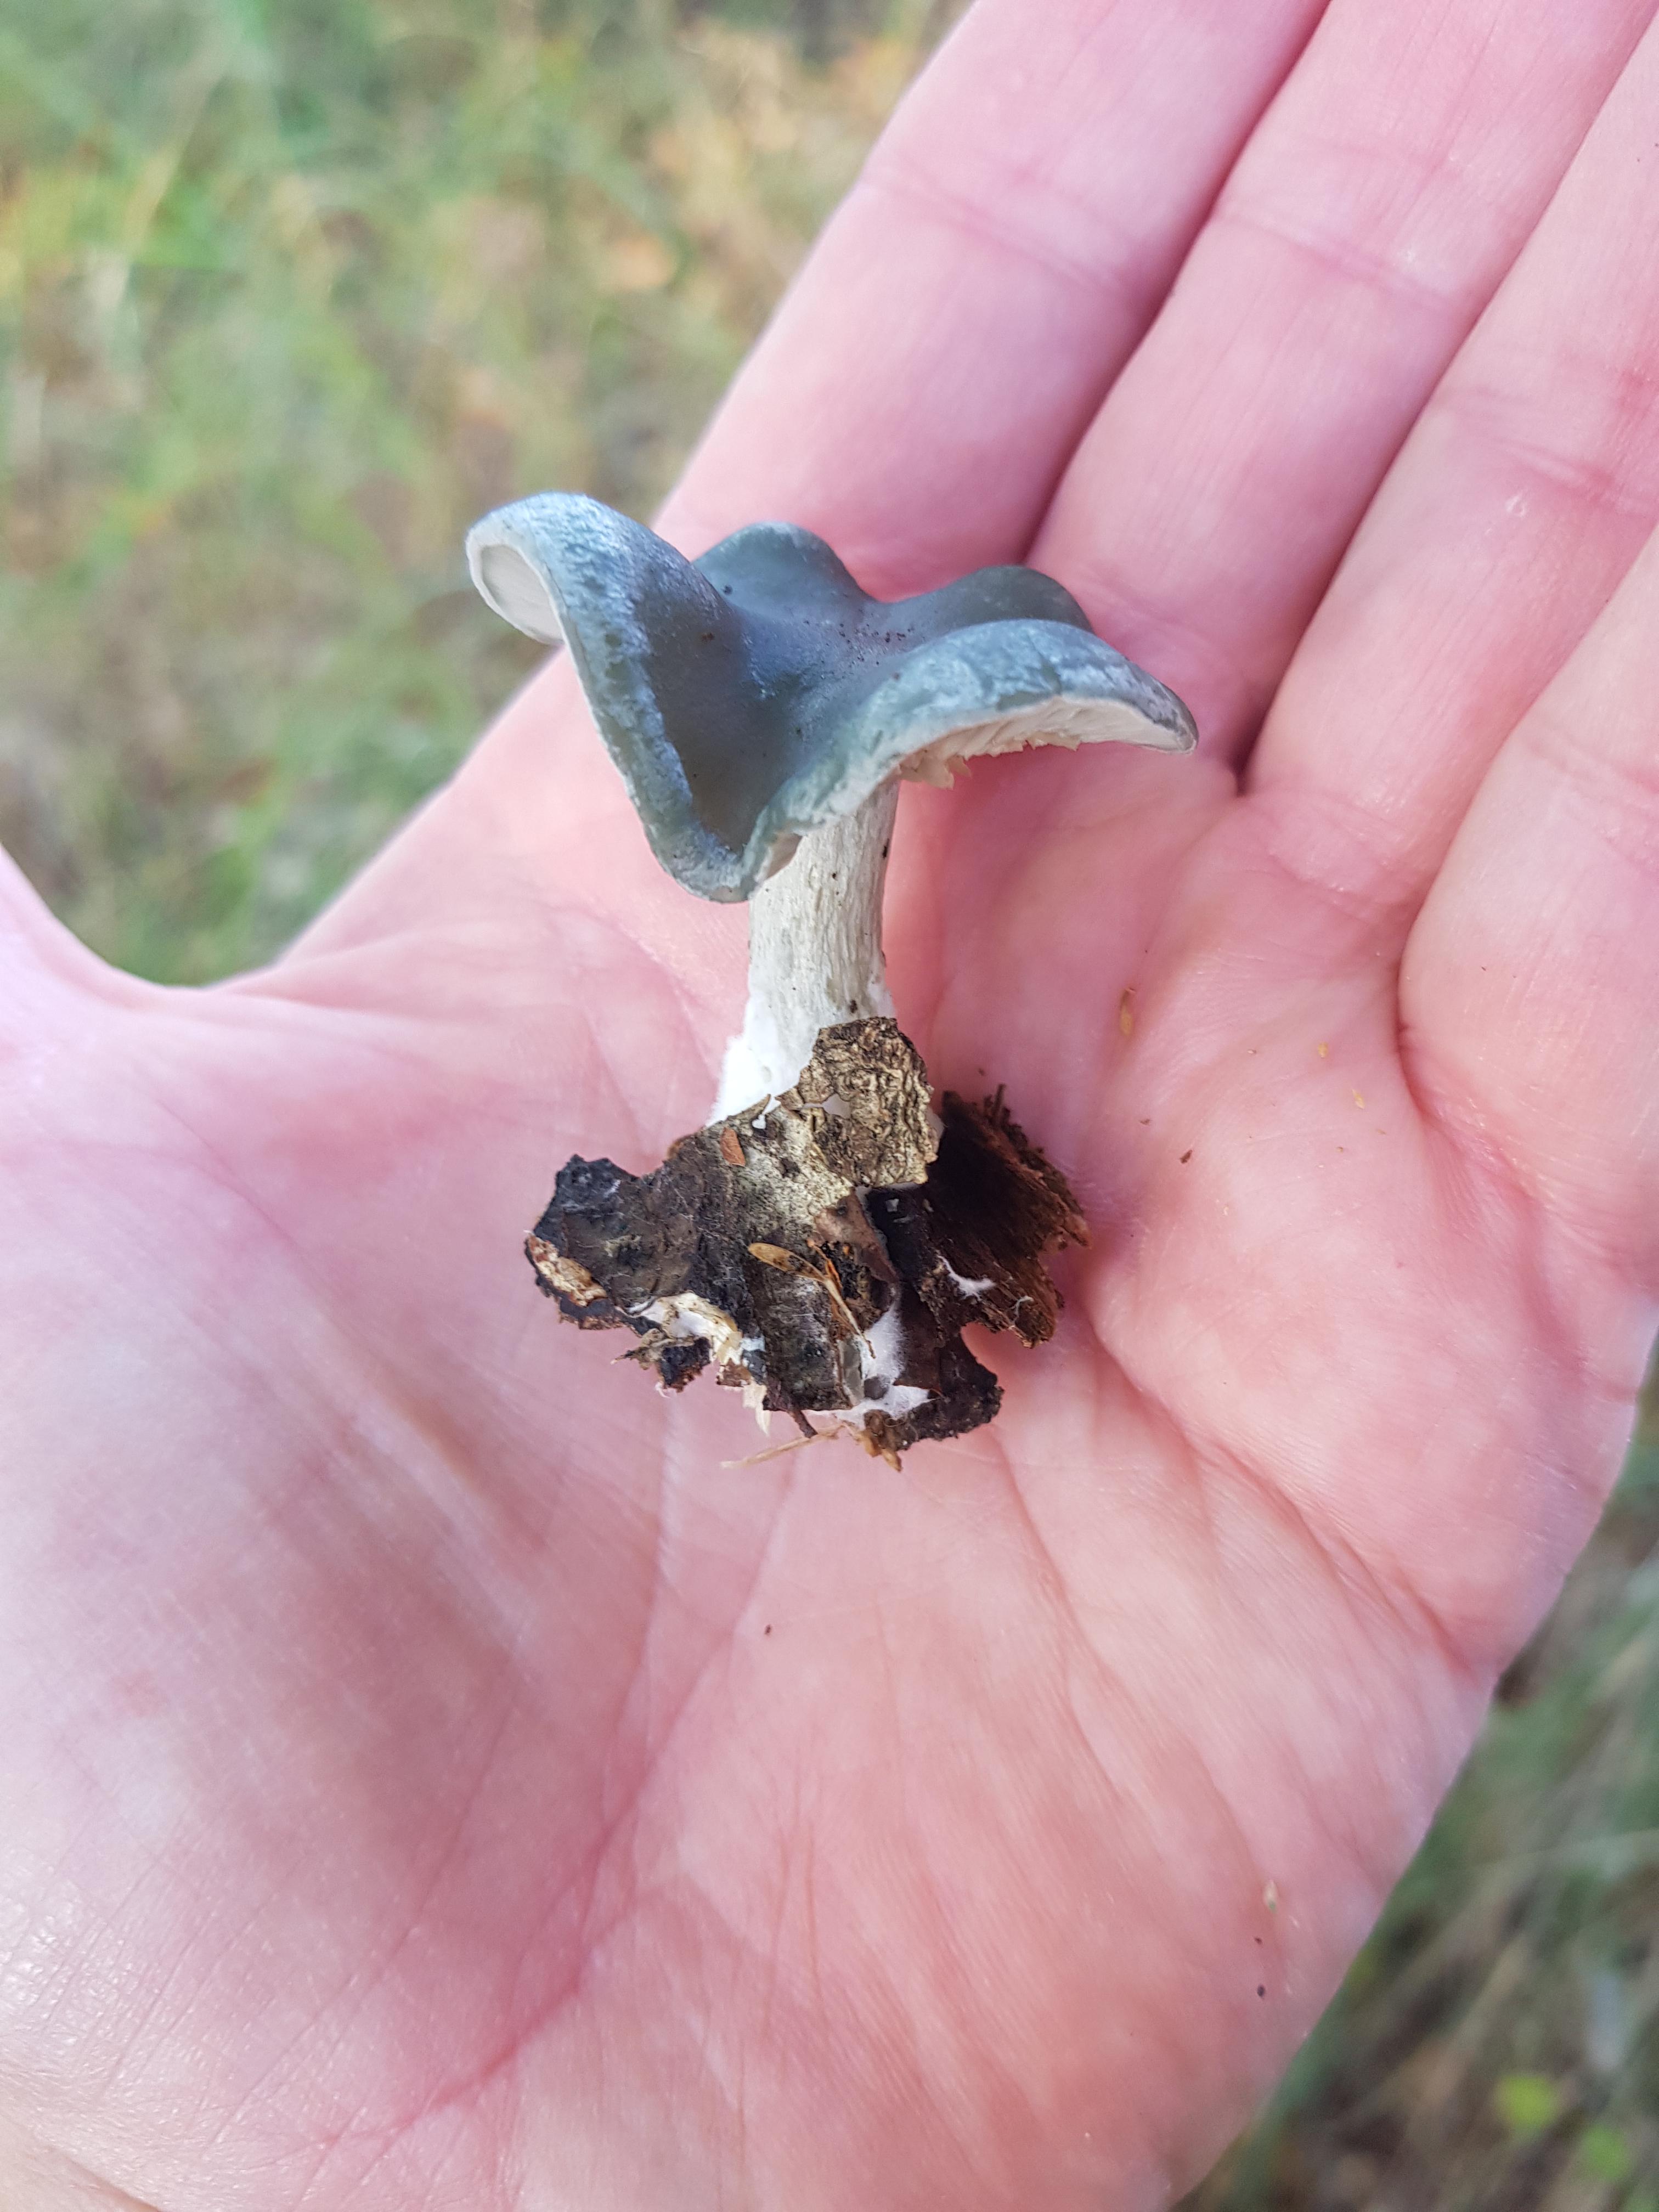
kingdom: Fungi
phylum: Basidiomycota
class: Agaricomycetes
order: Agaricales
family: Tricholomataceae
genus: Clitocybe
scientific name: Clitocybe odora
